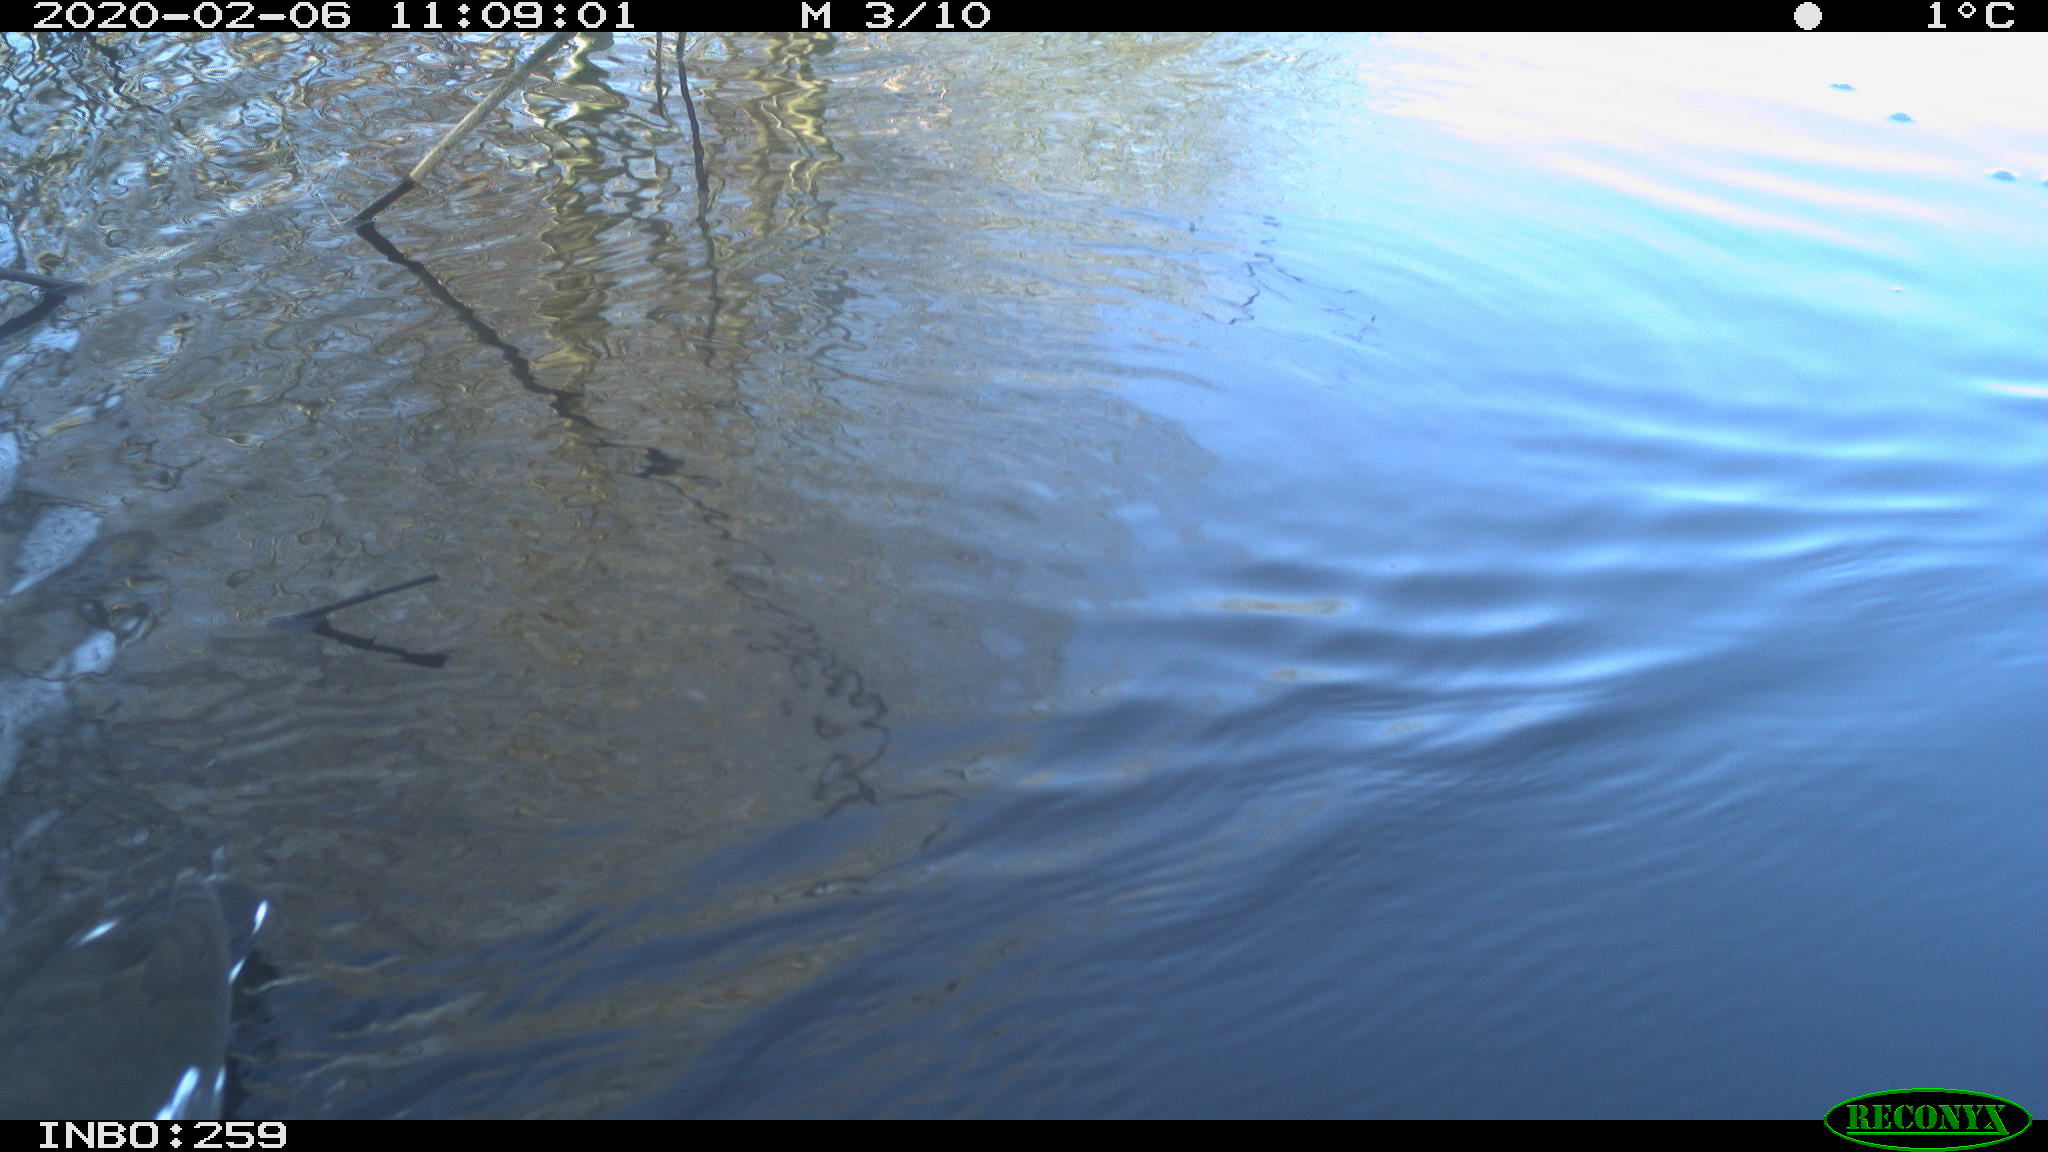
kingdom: Animalia
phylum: Chordata
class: Aves
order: Gruiformes
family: Rallidae
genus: Gallinula
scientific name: Gallinula chloropus
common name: Common moorhen
